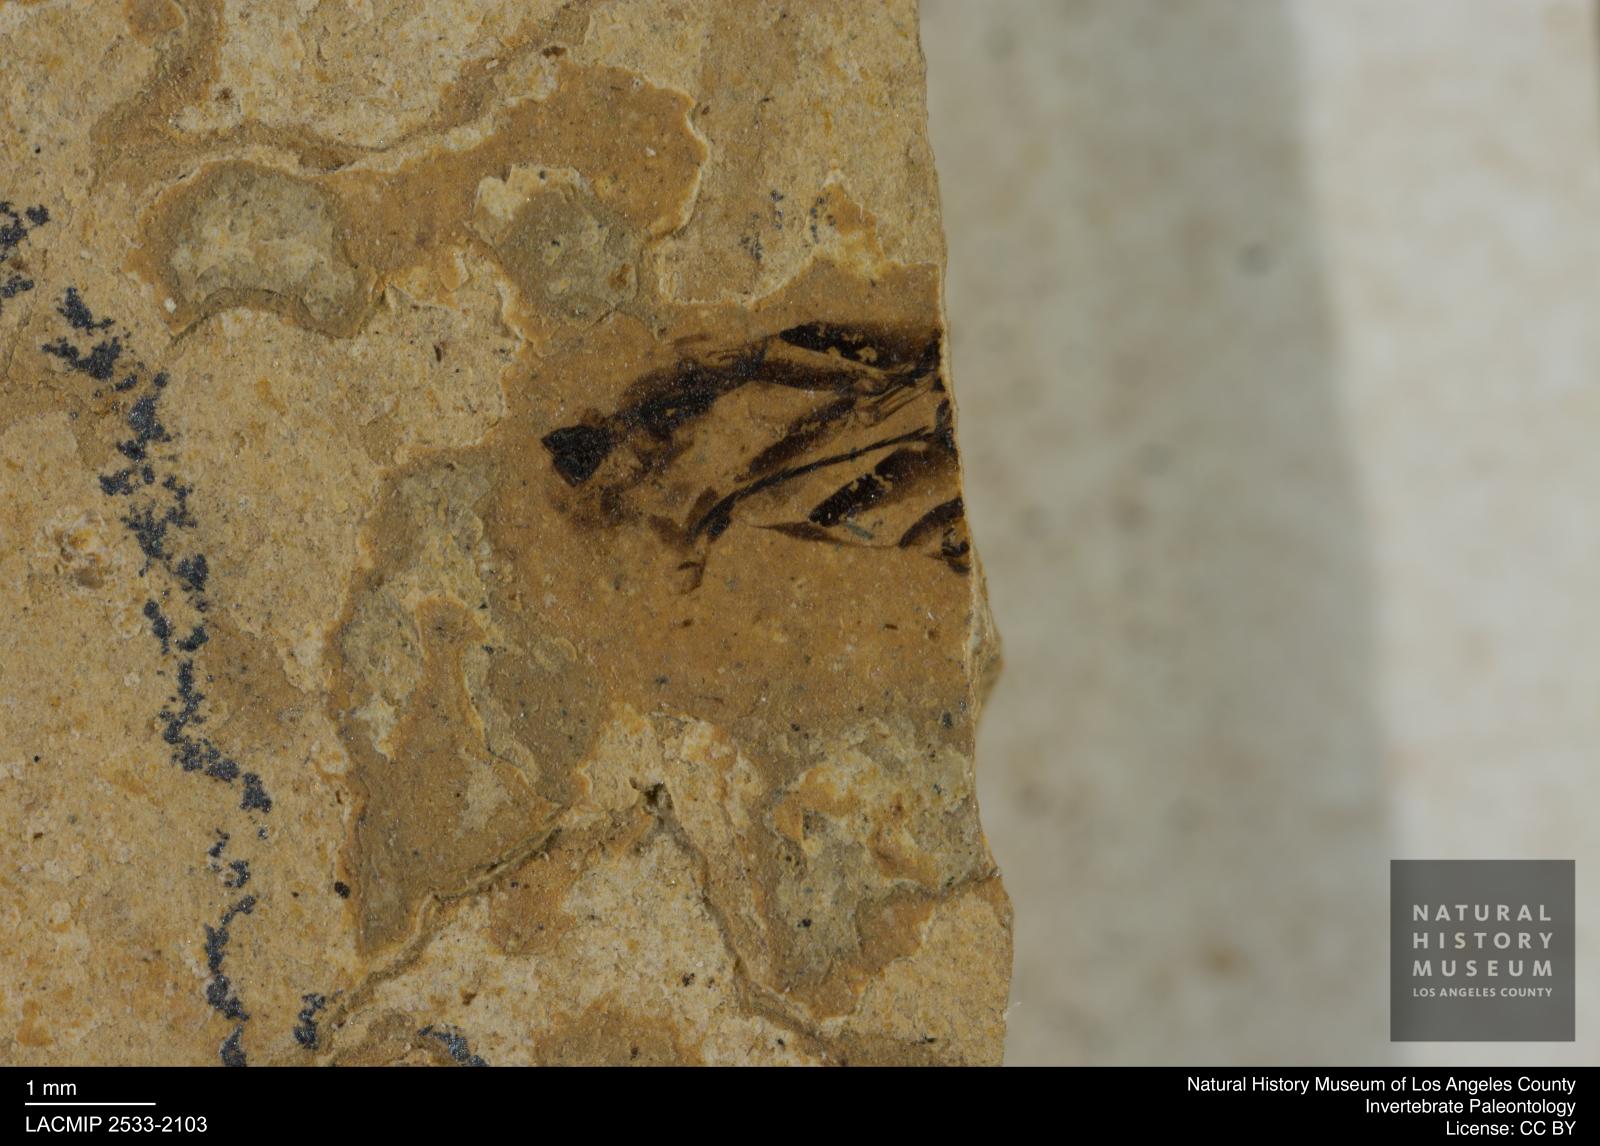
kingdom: Animalia
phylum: Arthropoda
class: Insecta
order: Hemiptera
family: Notonectidae
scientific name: Notonectidae
